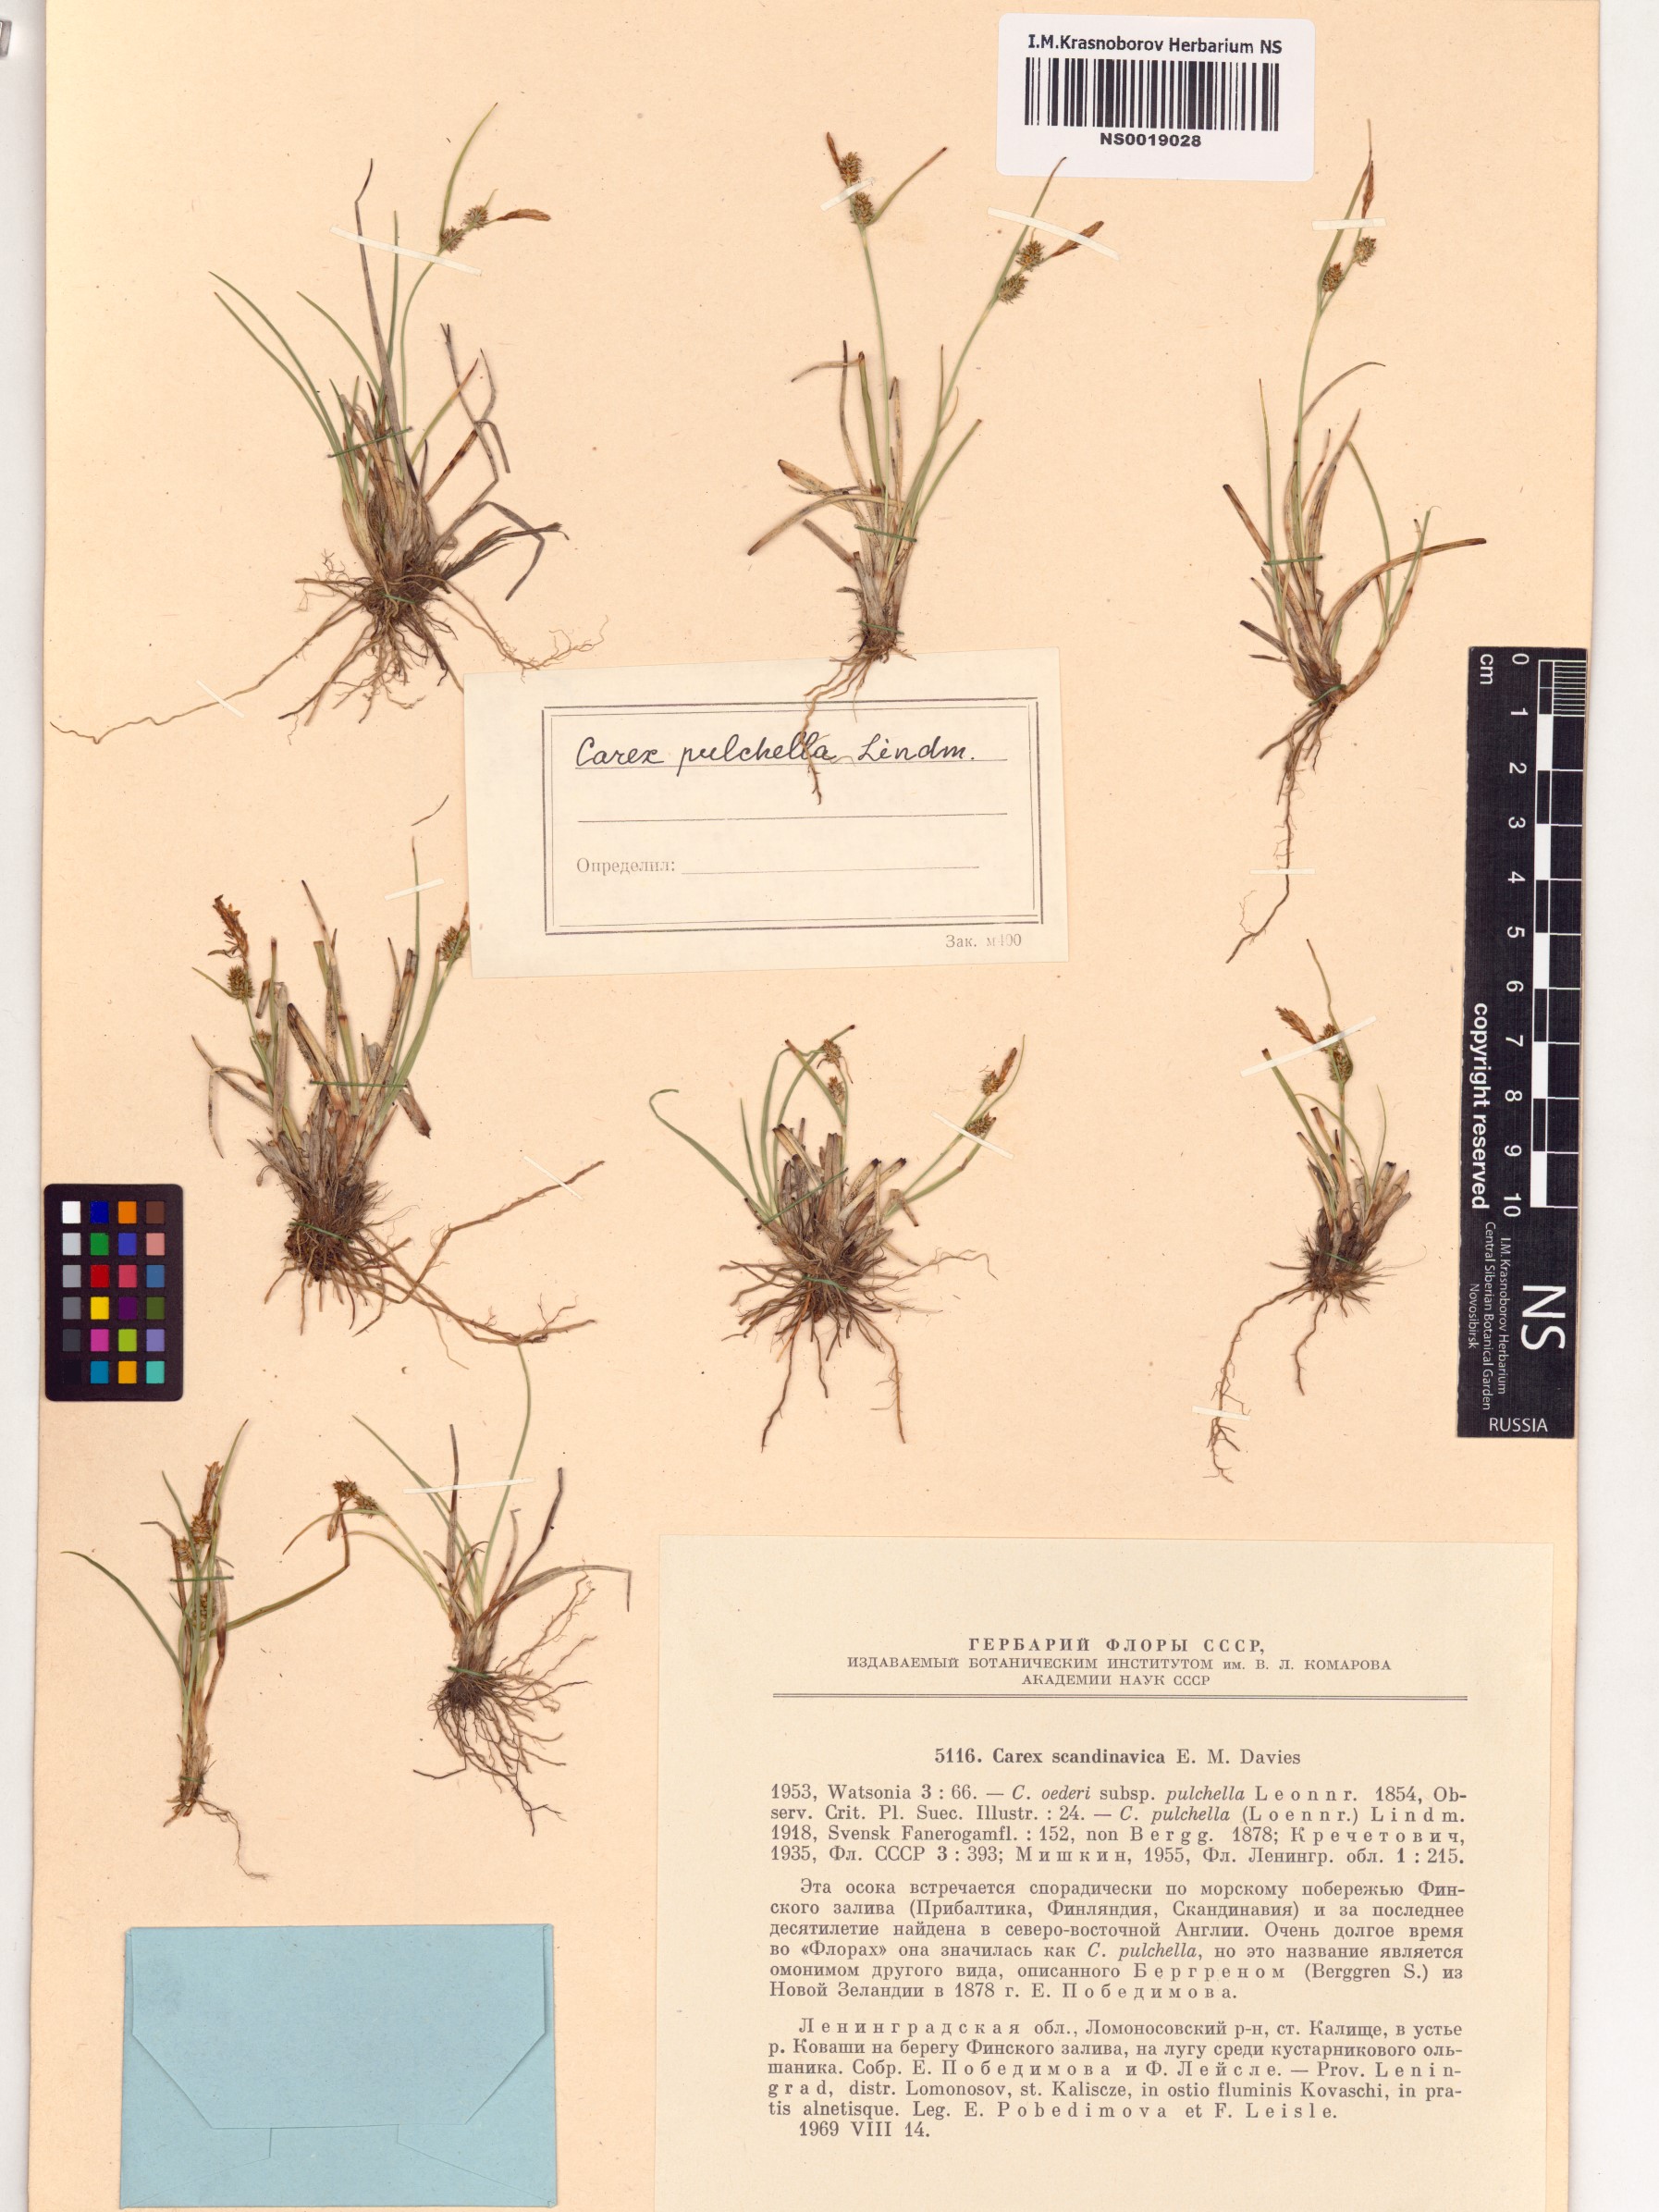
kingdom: Plantae
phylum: Tracheophyta
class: Liliopsida
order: Poales
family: Cyperaceae
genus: Carex
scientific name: Carex oederi
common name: Common & small-fruited yellow-sedge
